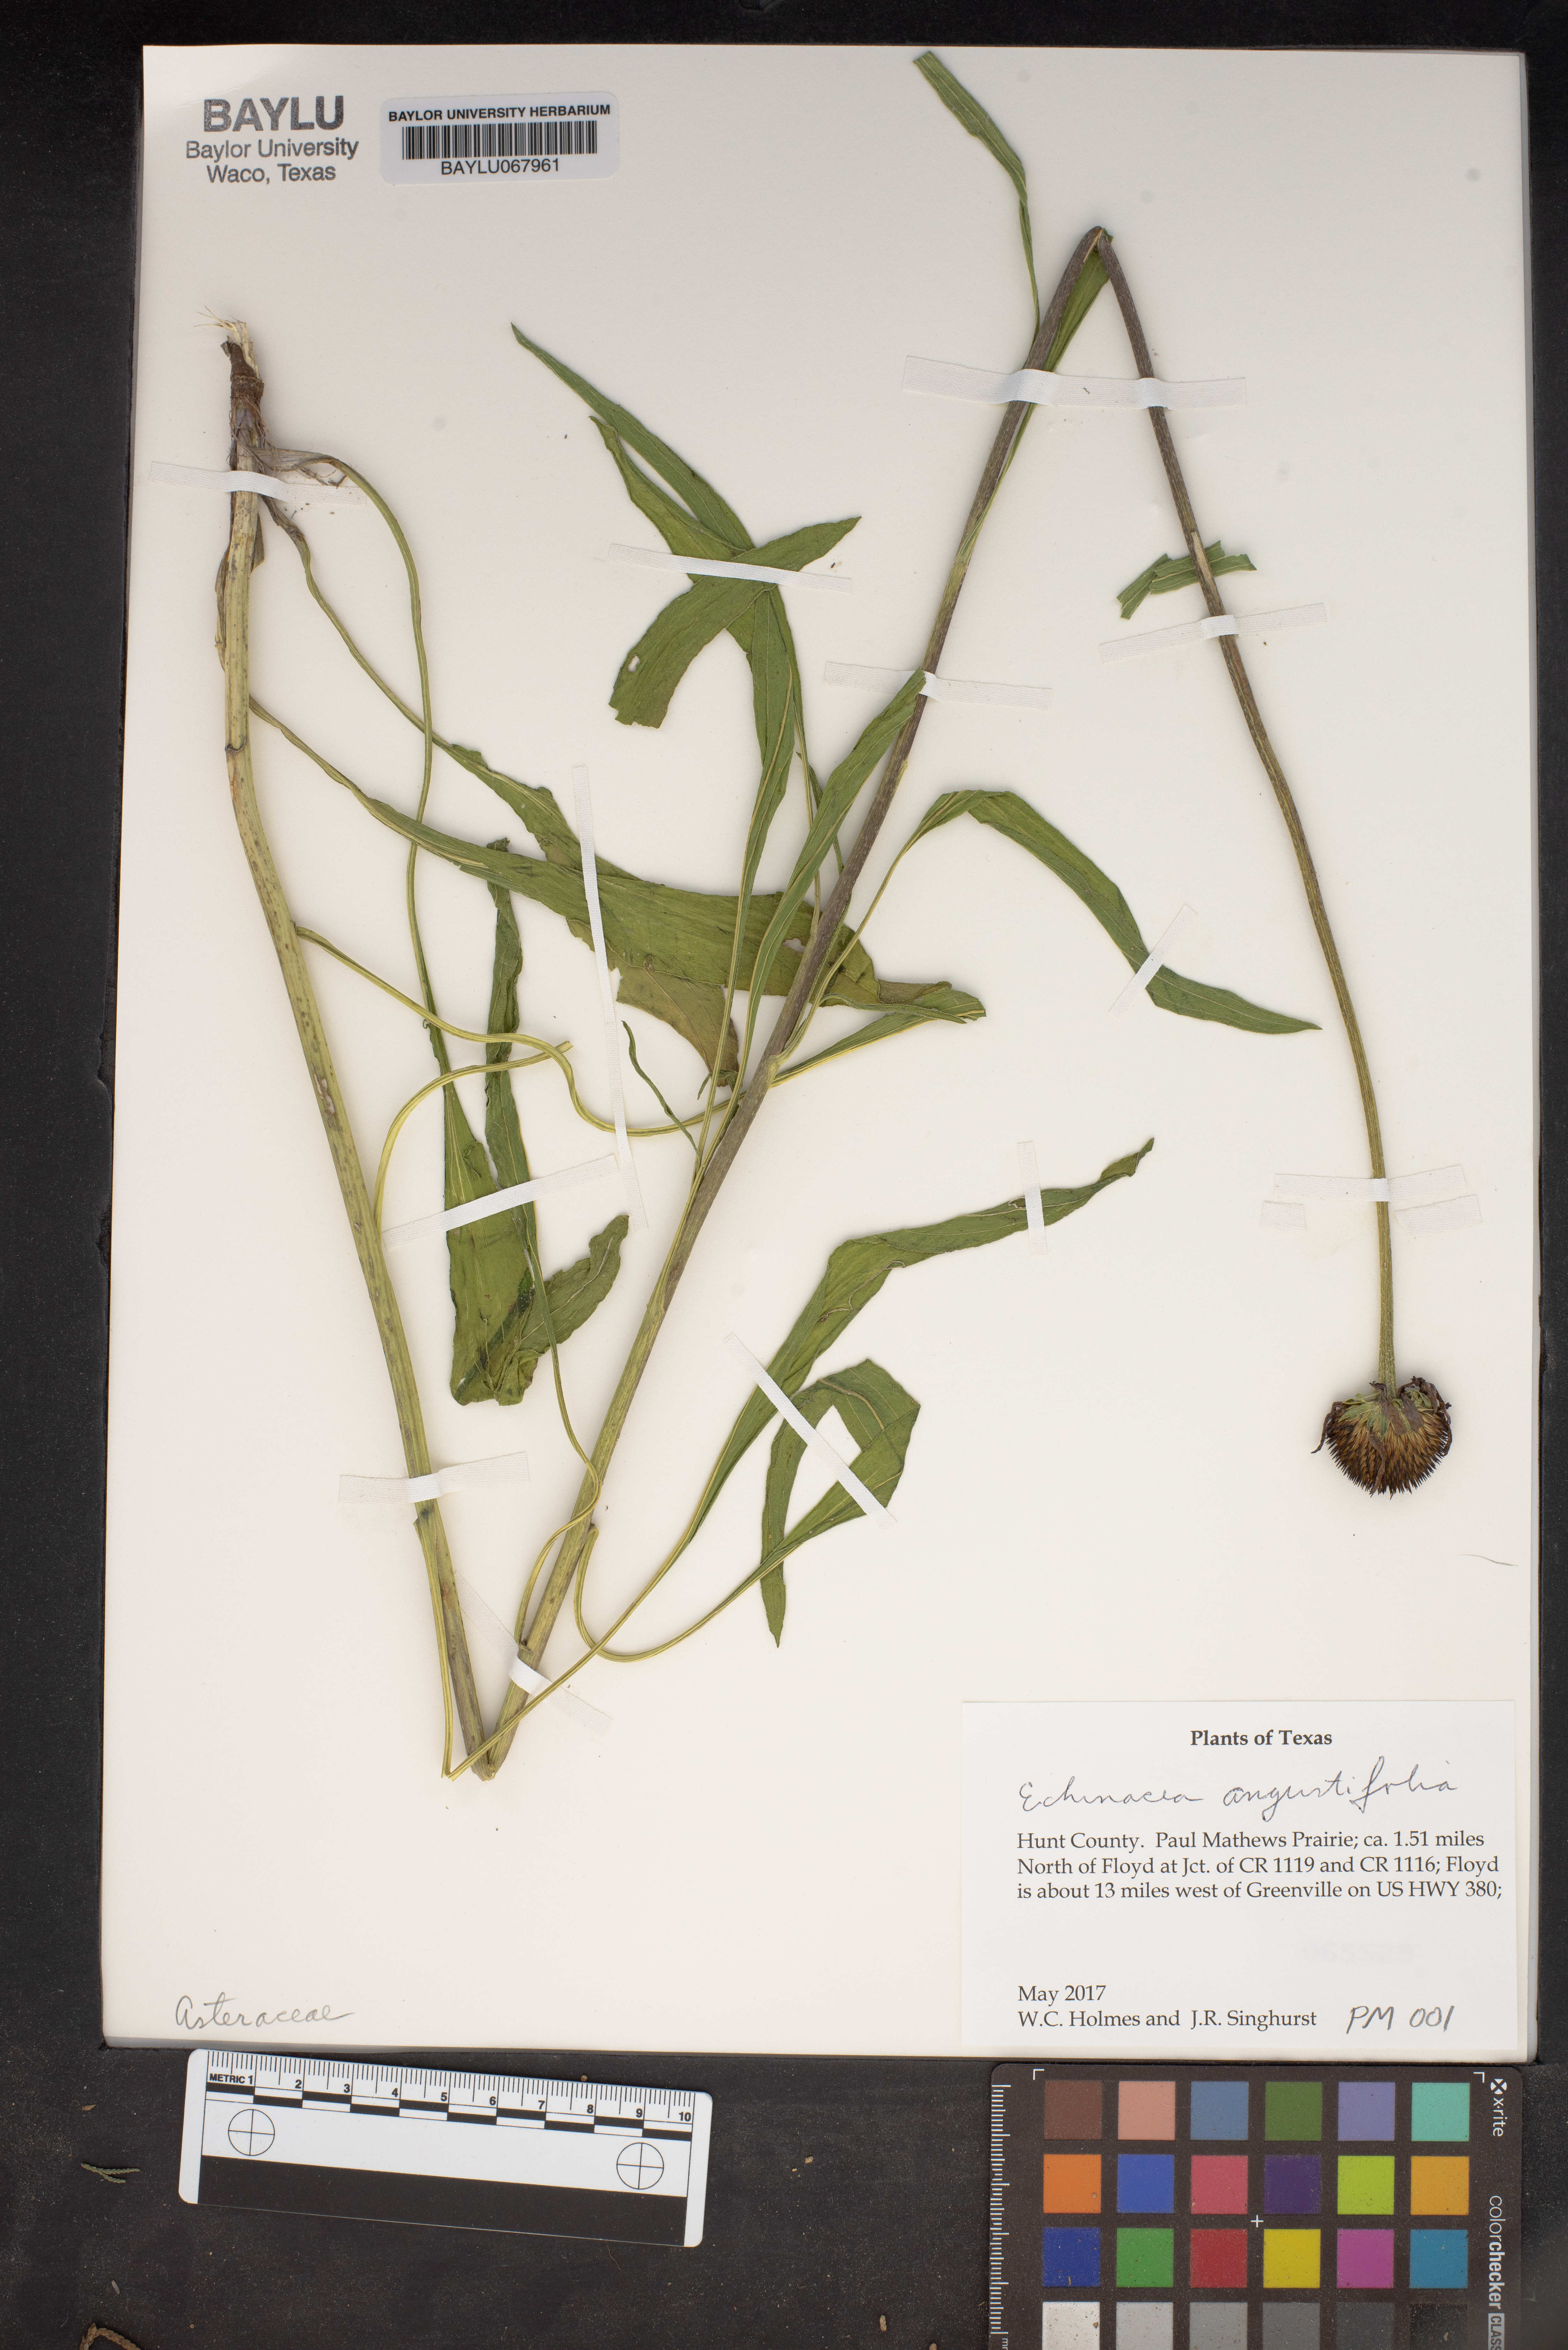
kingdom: Plantae
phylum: Tracheophyta
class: Magnoliopsida
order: Asterales
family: Asteraceae
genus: Echinacea
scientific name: Echinacea angustifolia
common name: Black-sampson echinacea
